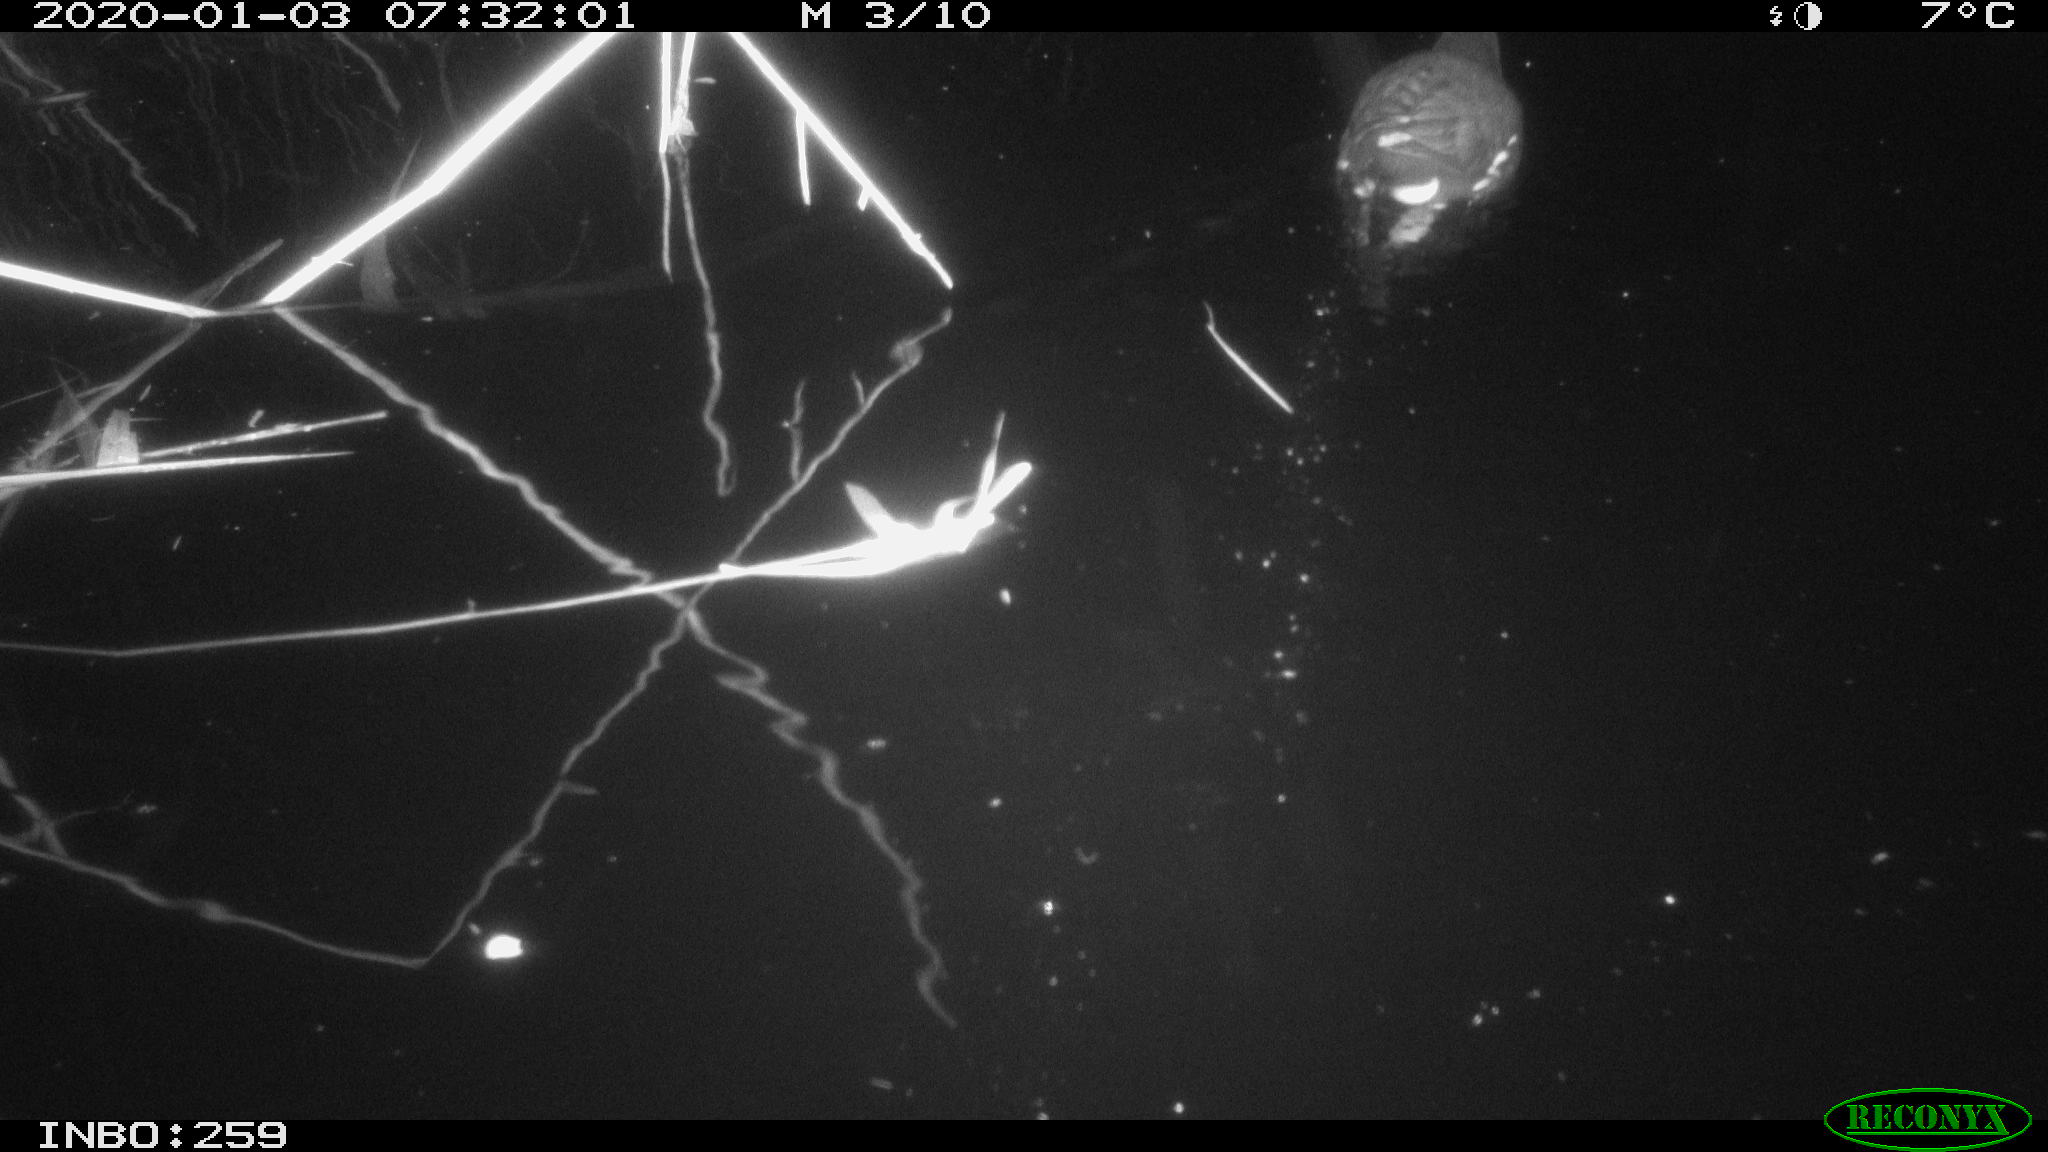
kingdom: Animalia
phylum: Chordata
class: Aves
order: Gruiformes
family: Rallidae
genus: Gallinula
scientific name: Gallinula chloropus
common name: Common moorhen
